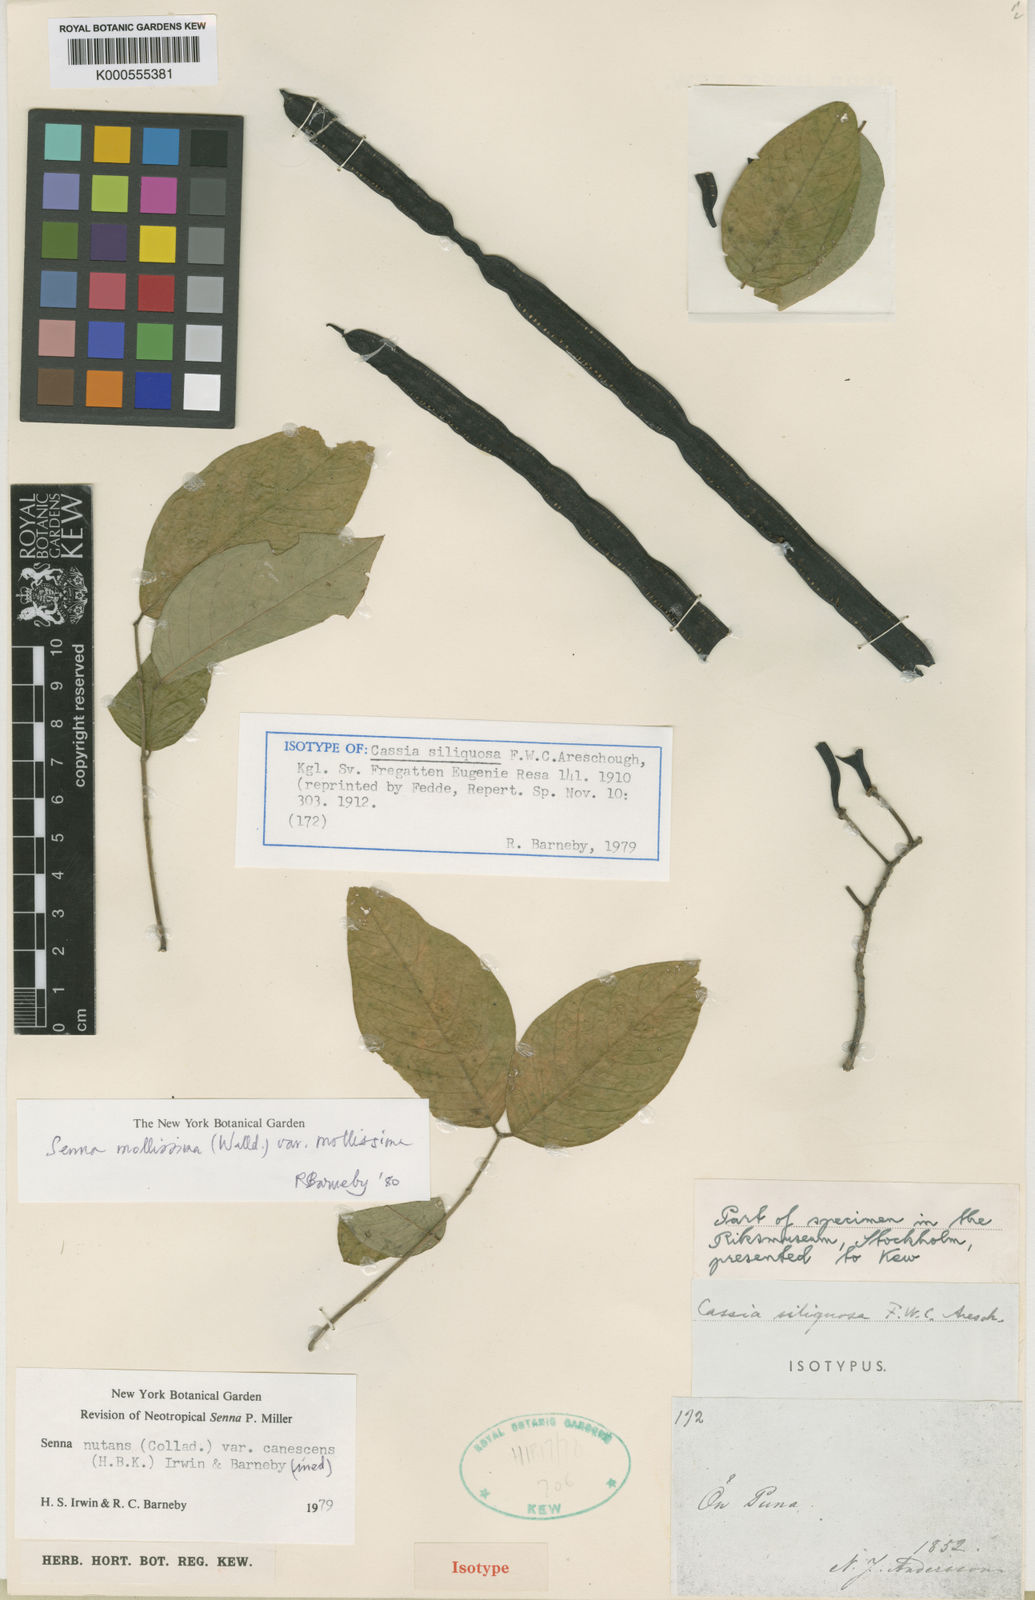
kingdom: Plantae
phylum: Tracheophyta
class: Magnoliopsida
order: Fabales
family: Fabaceae
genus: Senna
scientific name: Senna mollissima
